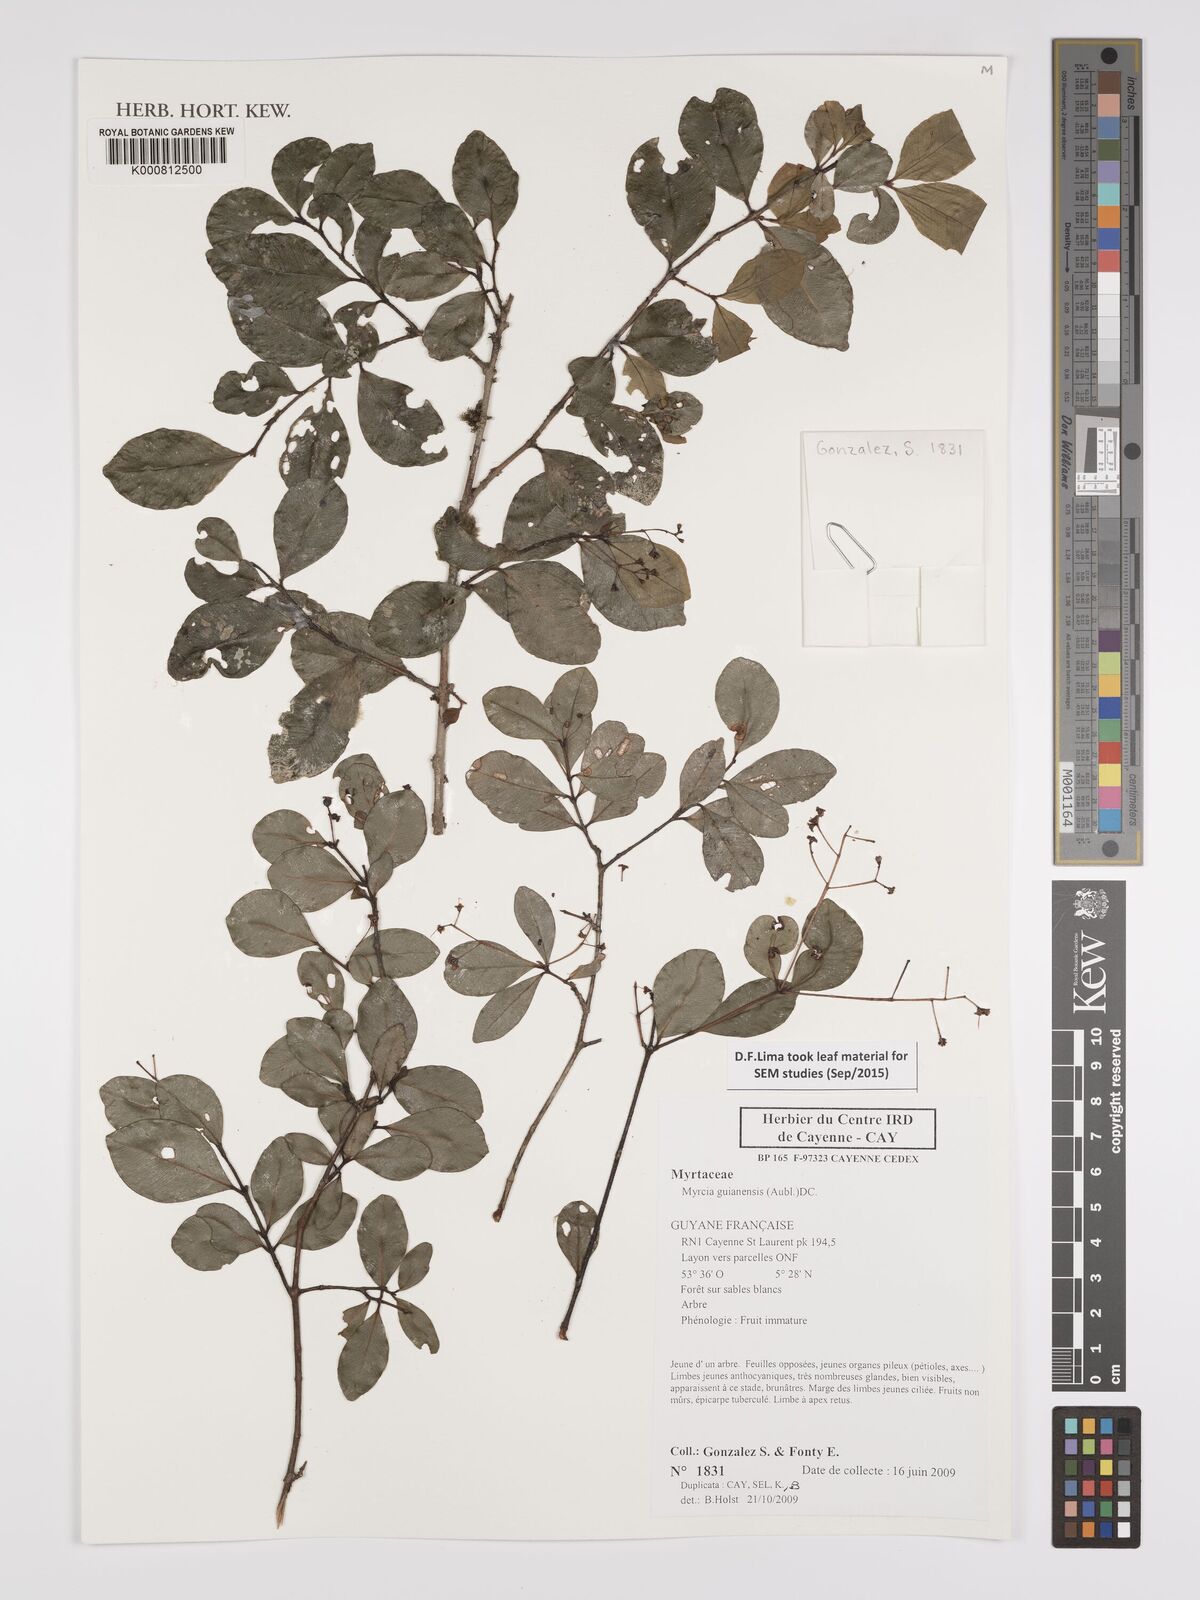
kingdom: Plantae
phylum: Tracheophyta
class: Magnoliopsida
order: Myrtales
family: Myrtaceae
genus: Myrcia
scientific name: Myrcia guianensis
